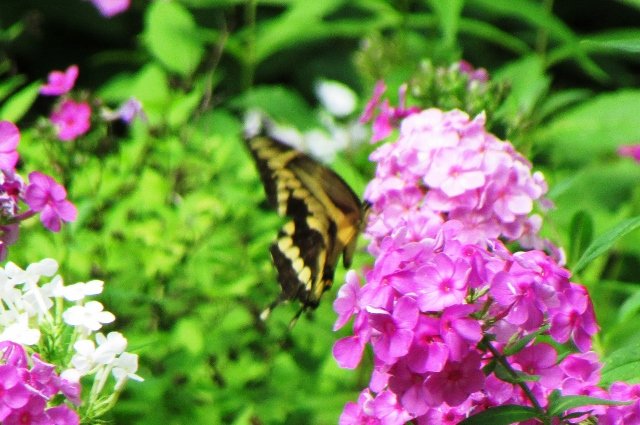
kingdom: Animalia
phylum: Arthropoda
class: Insecta
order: Lepidoptera
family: Papilionidae
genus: Papilio
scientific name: Papilio cresphontes
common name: Eastern Giant Swallowtail
